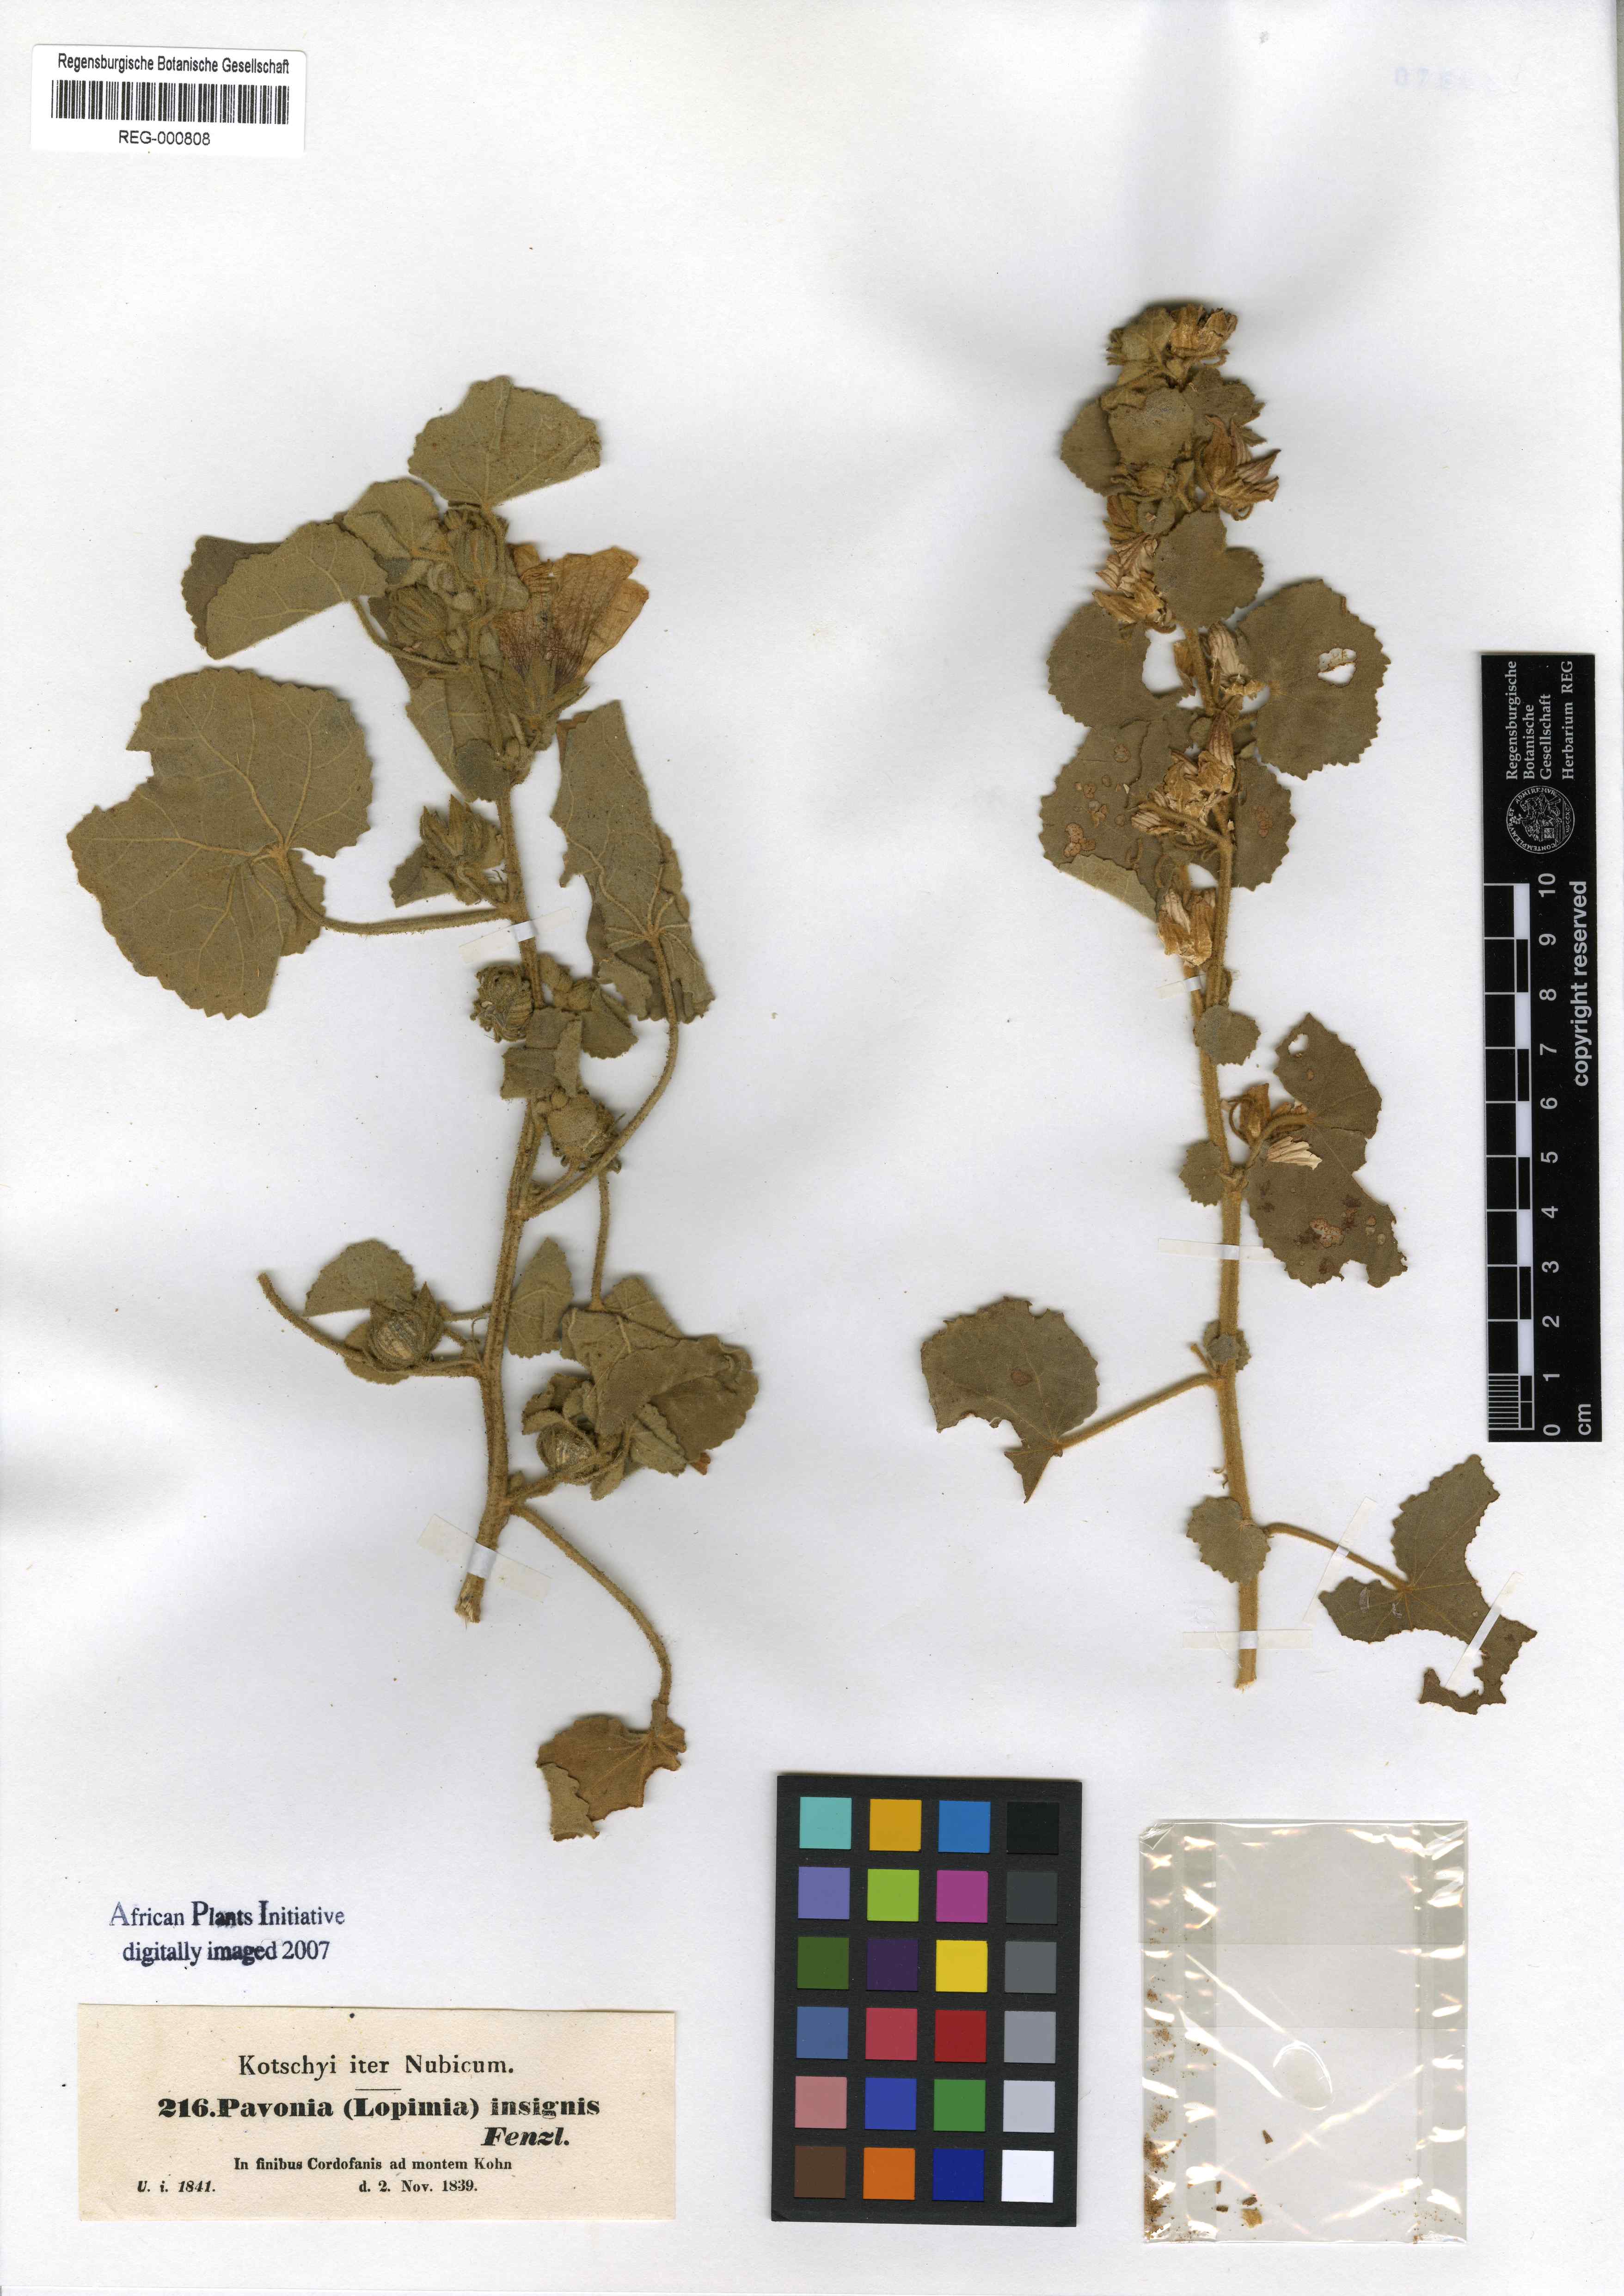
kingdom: Plantae
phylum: Tracheophyta
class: Magnoliopsida
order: Malvales
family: Malvaceae
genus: Pavonia
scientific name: Pavonia senegalensis
